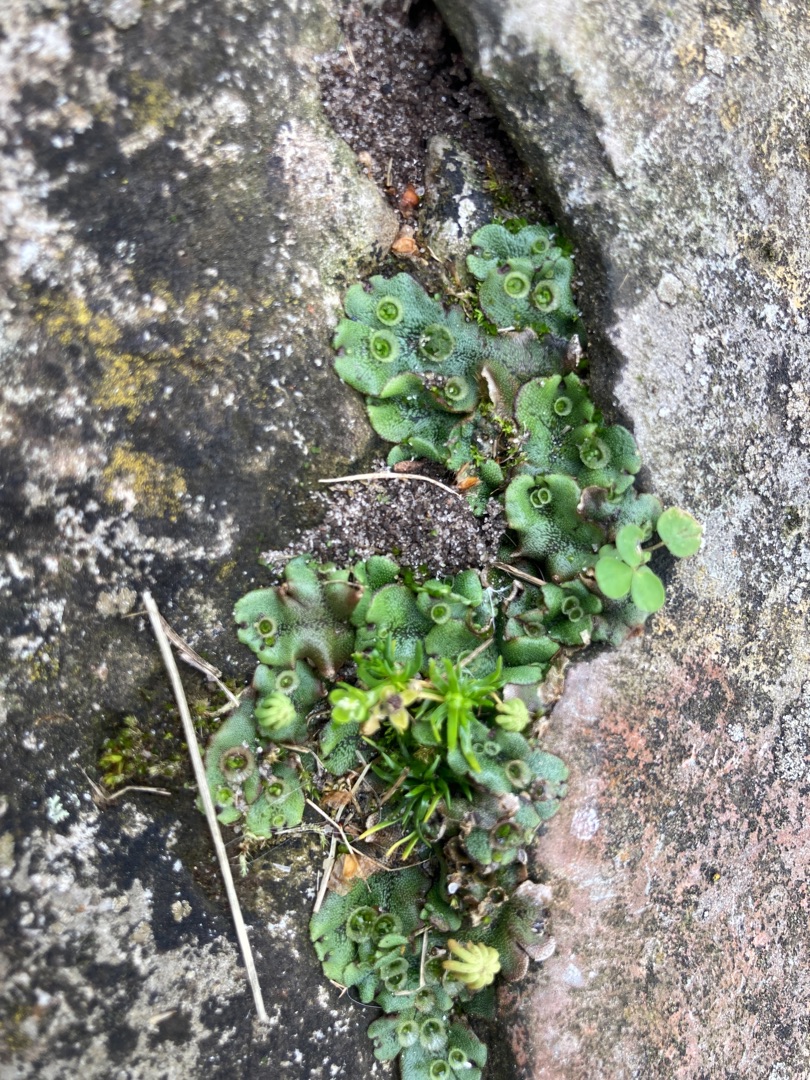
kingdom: Plantae
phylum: Marchantiophyta
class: Marchantiopsida
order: Marchantiales
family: Marchantiaceae
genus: Marchantia
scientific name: Marchantia polymorpha
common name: Almindelig lungemos (underart)
